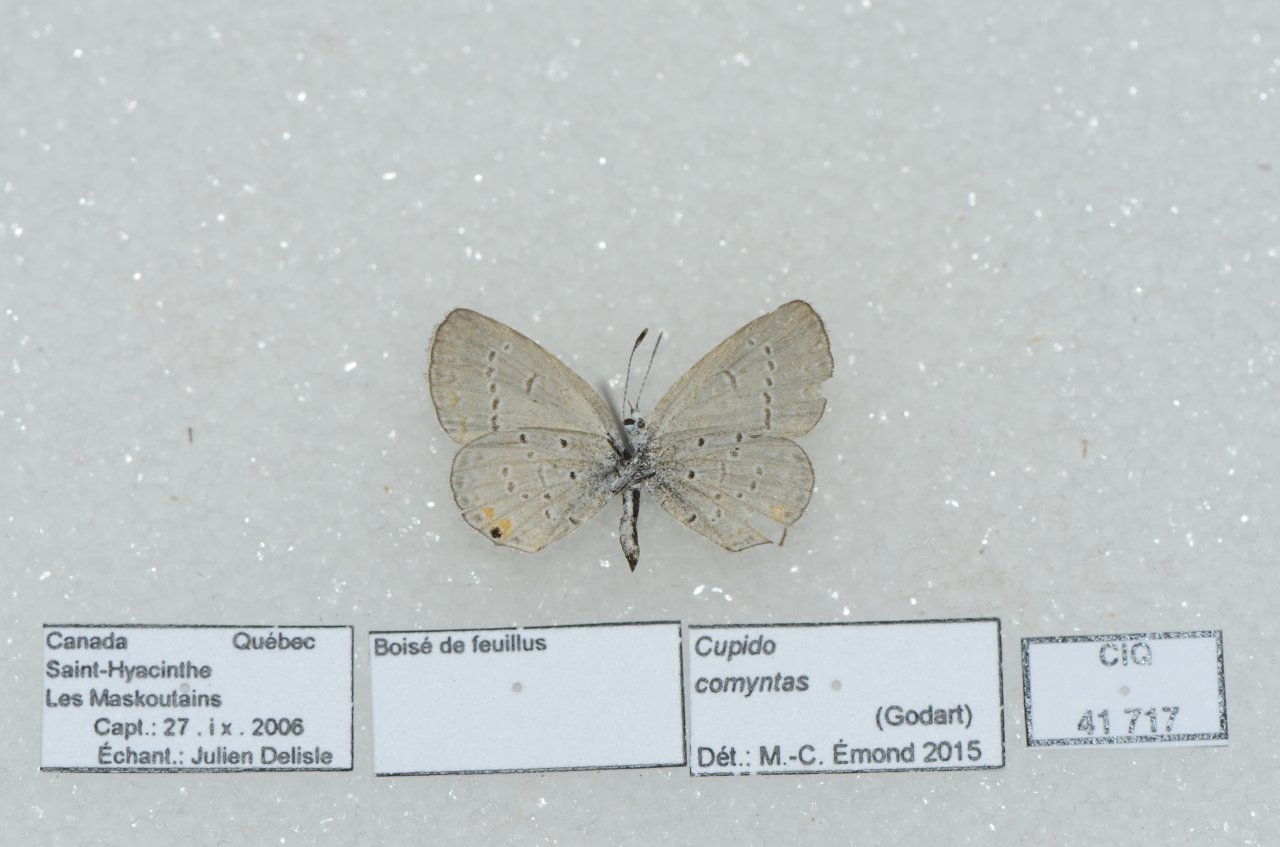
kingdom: Animalia
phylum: Arthropoda
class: Insecta
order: Lepidoptera
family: Lycaenidae
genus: Elkalyce
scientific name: Elkalyce comyntas
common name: Eastern Tailed-Blue
